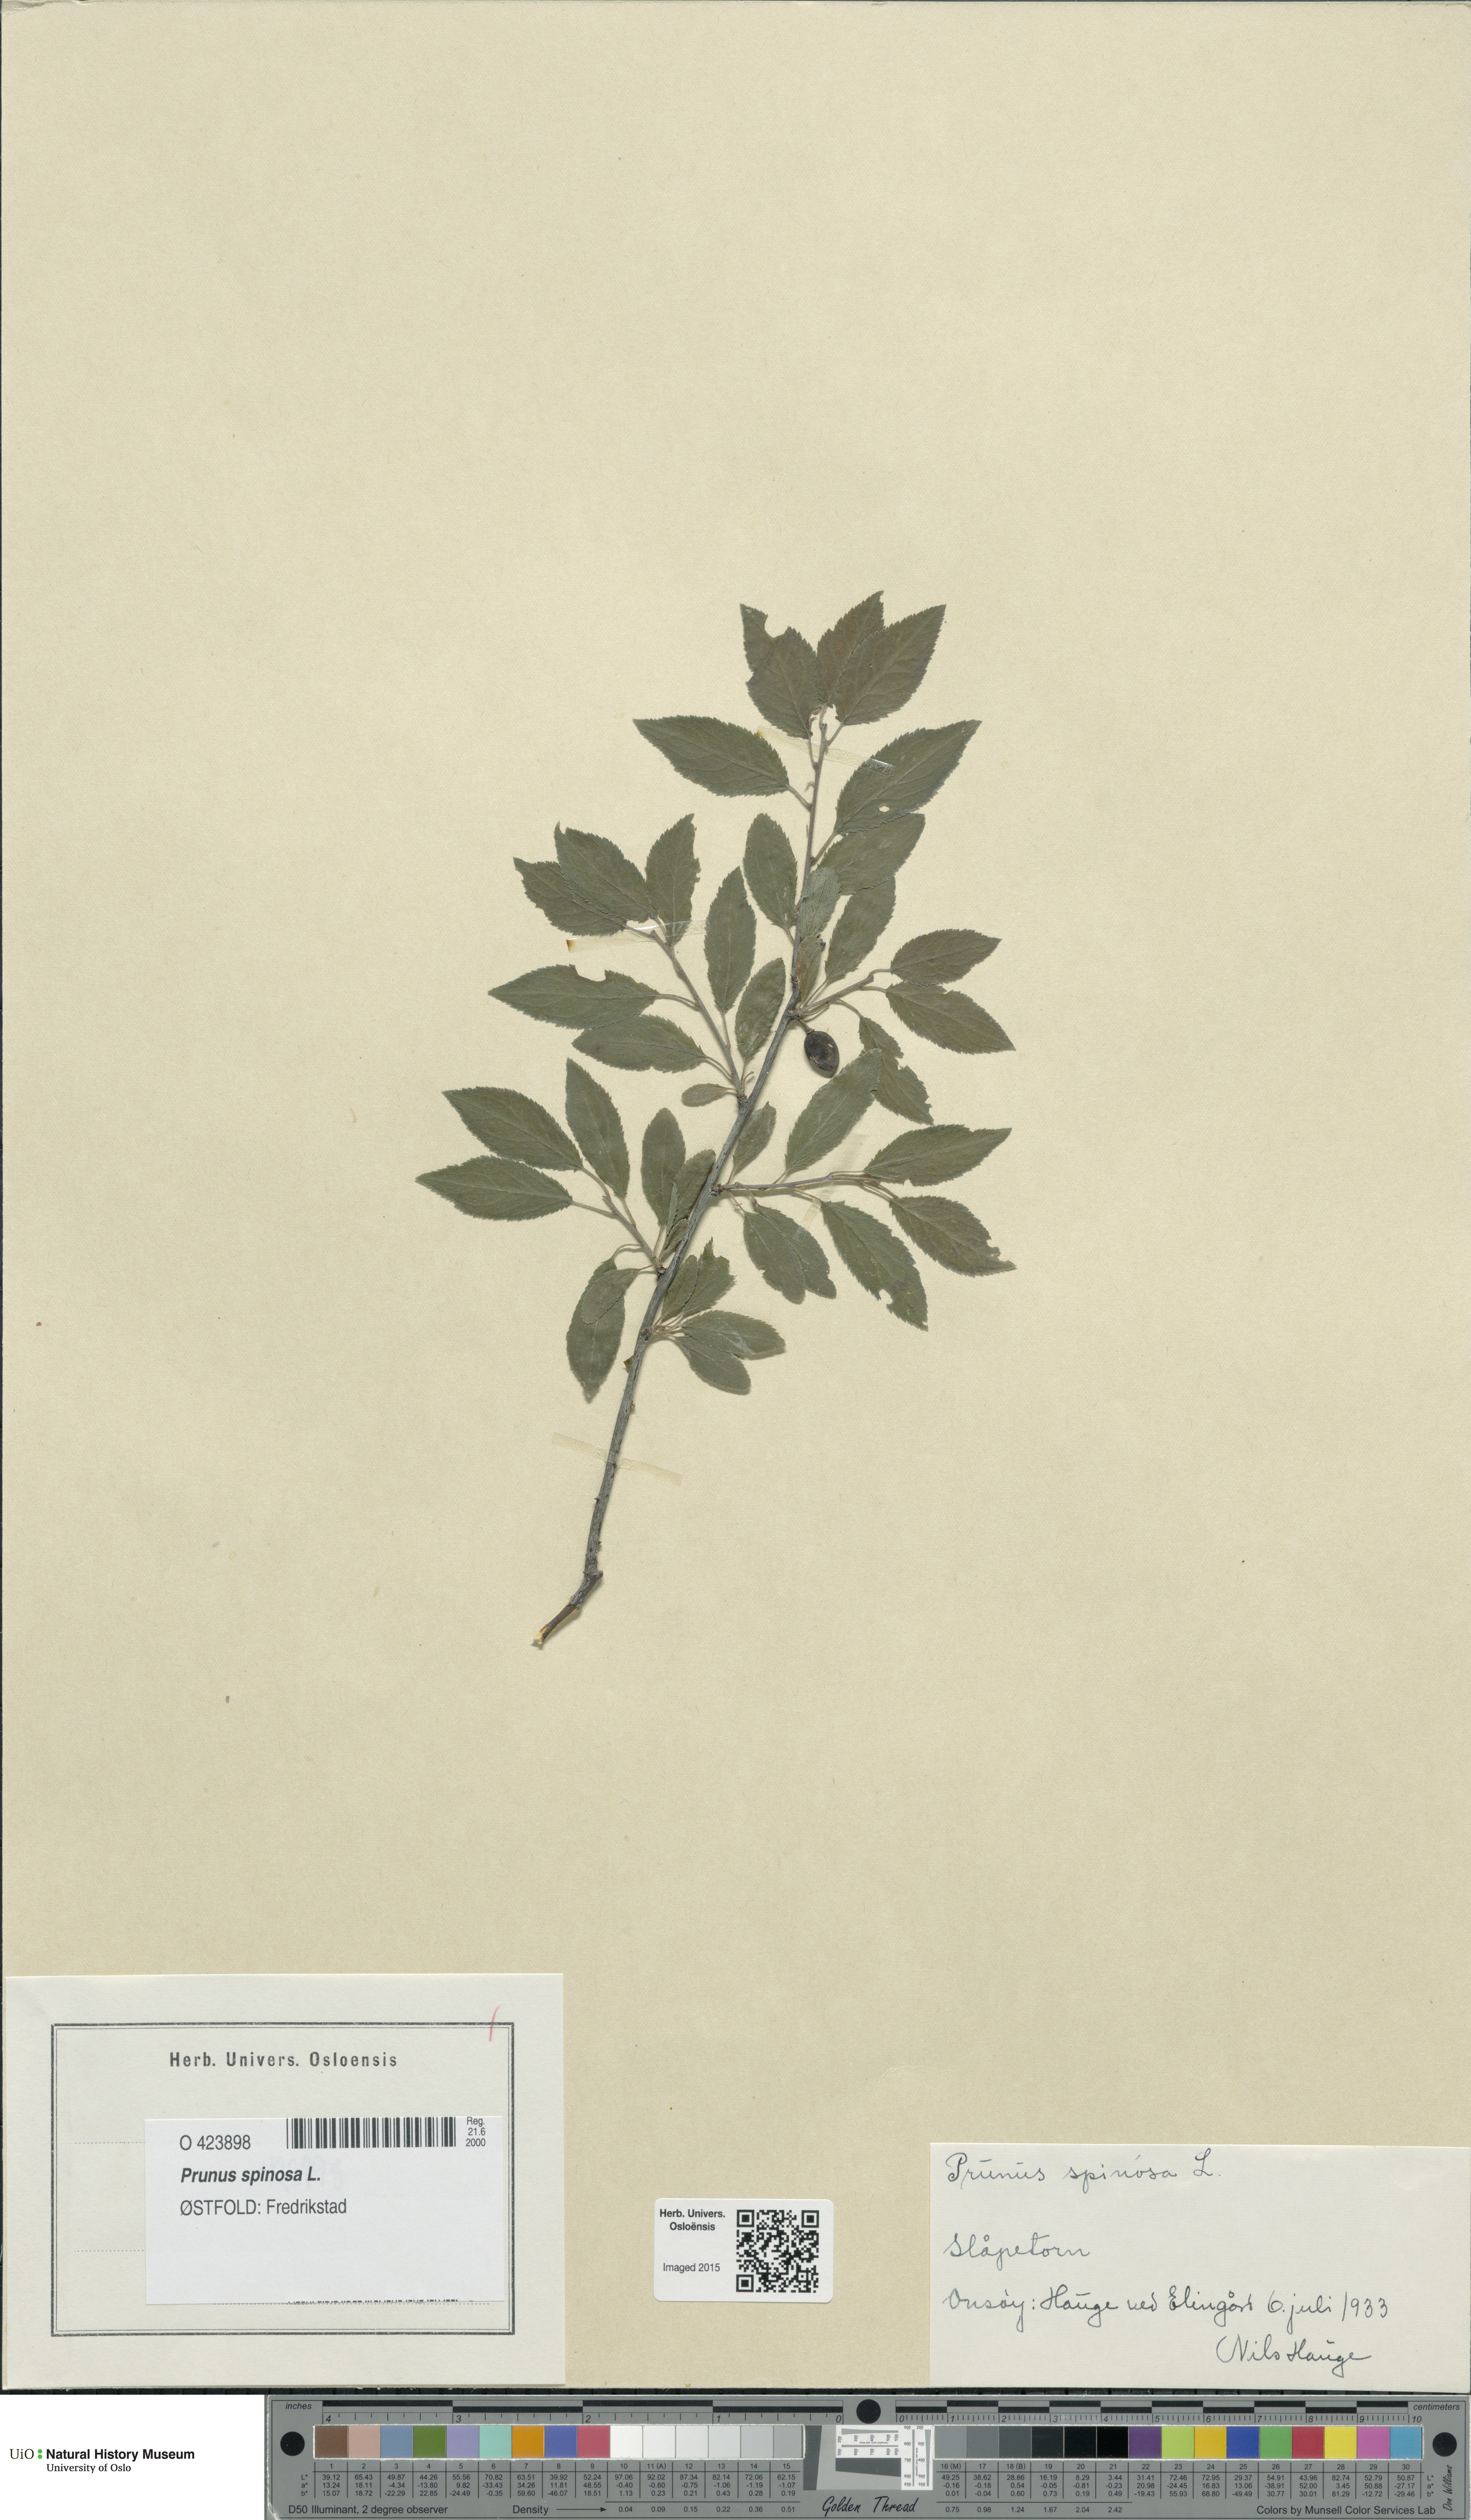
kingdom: Plantae
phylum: Tracheophyta
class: Magnoliopsida
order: Rosales
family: Rosaceae
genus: Prunus
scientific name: Prunus spinosa
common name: Blackthorn
